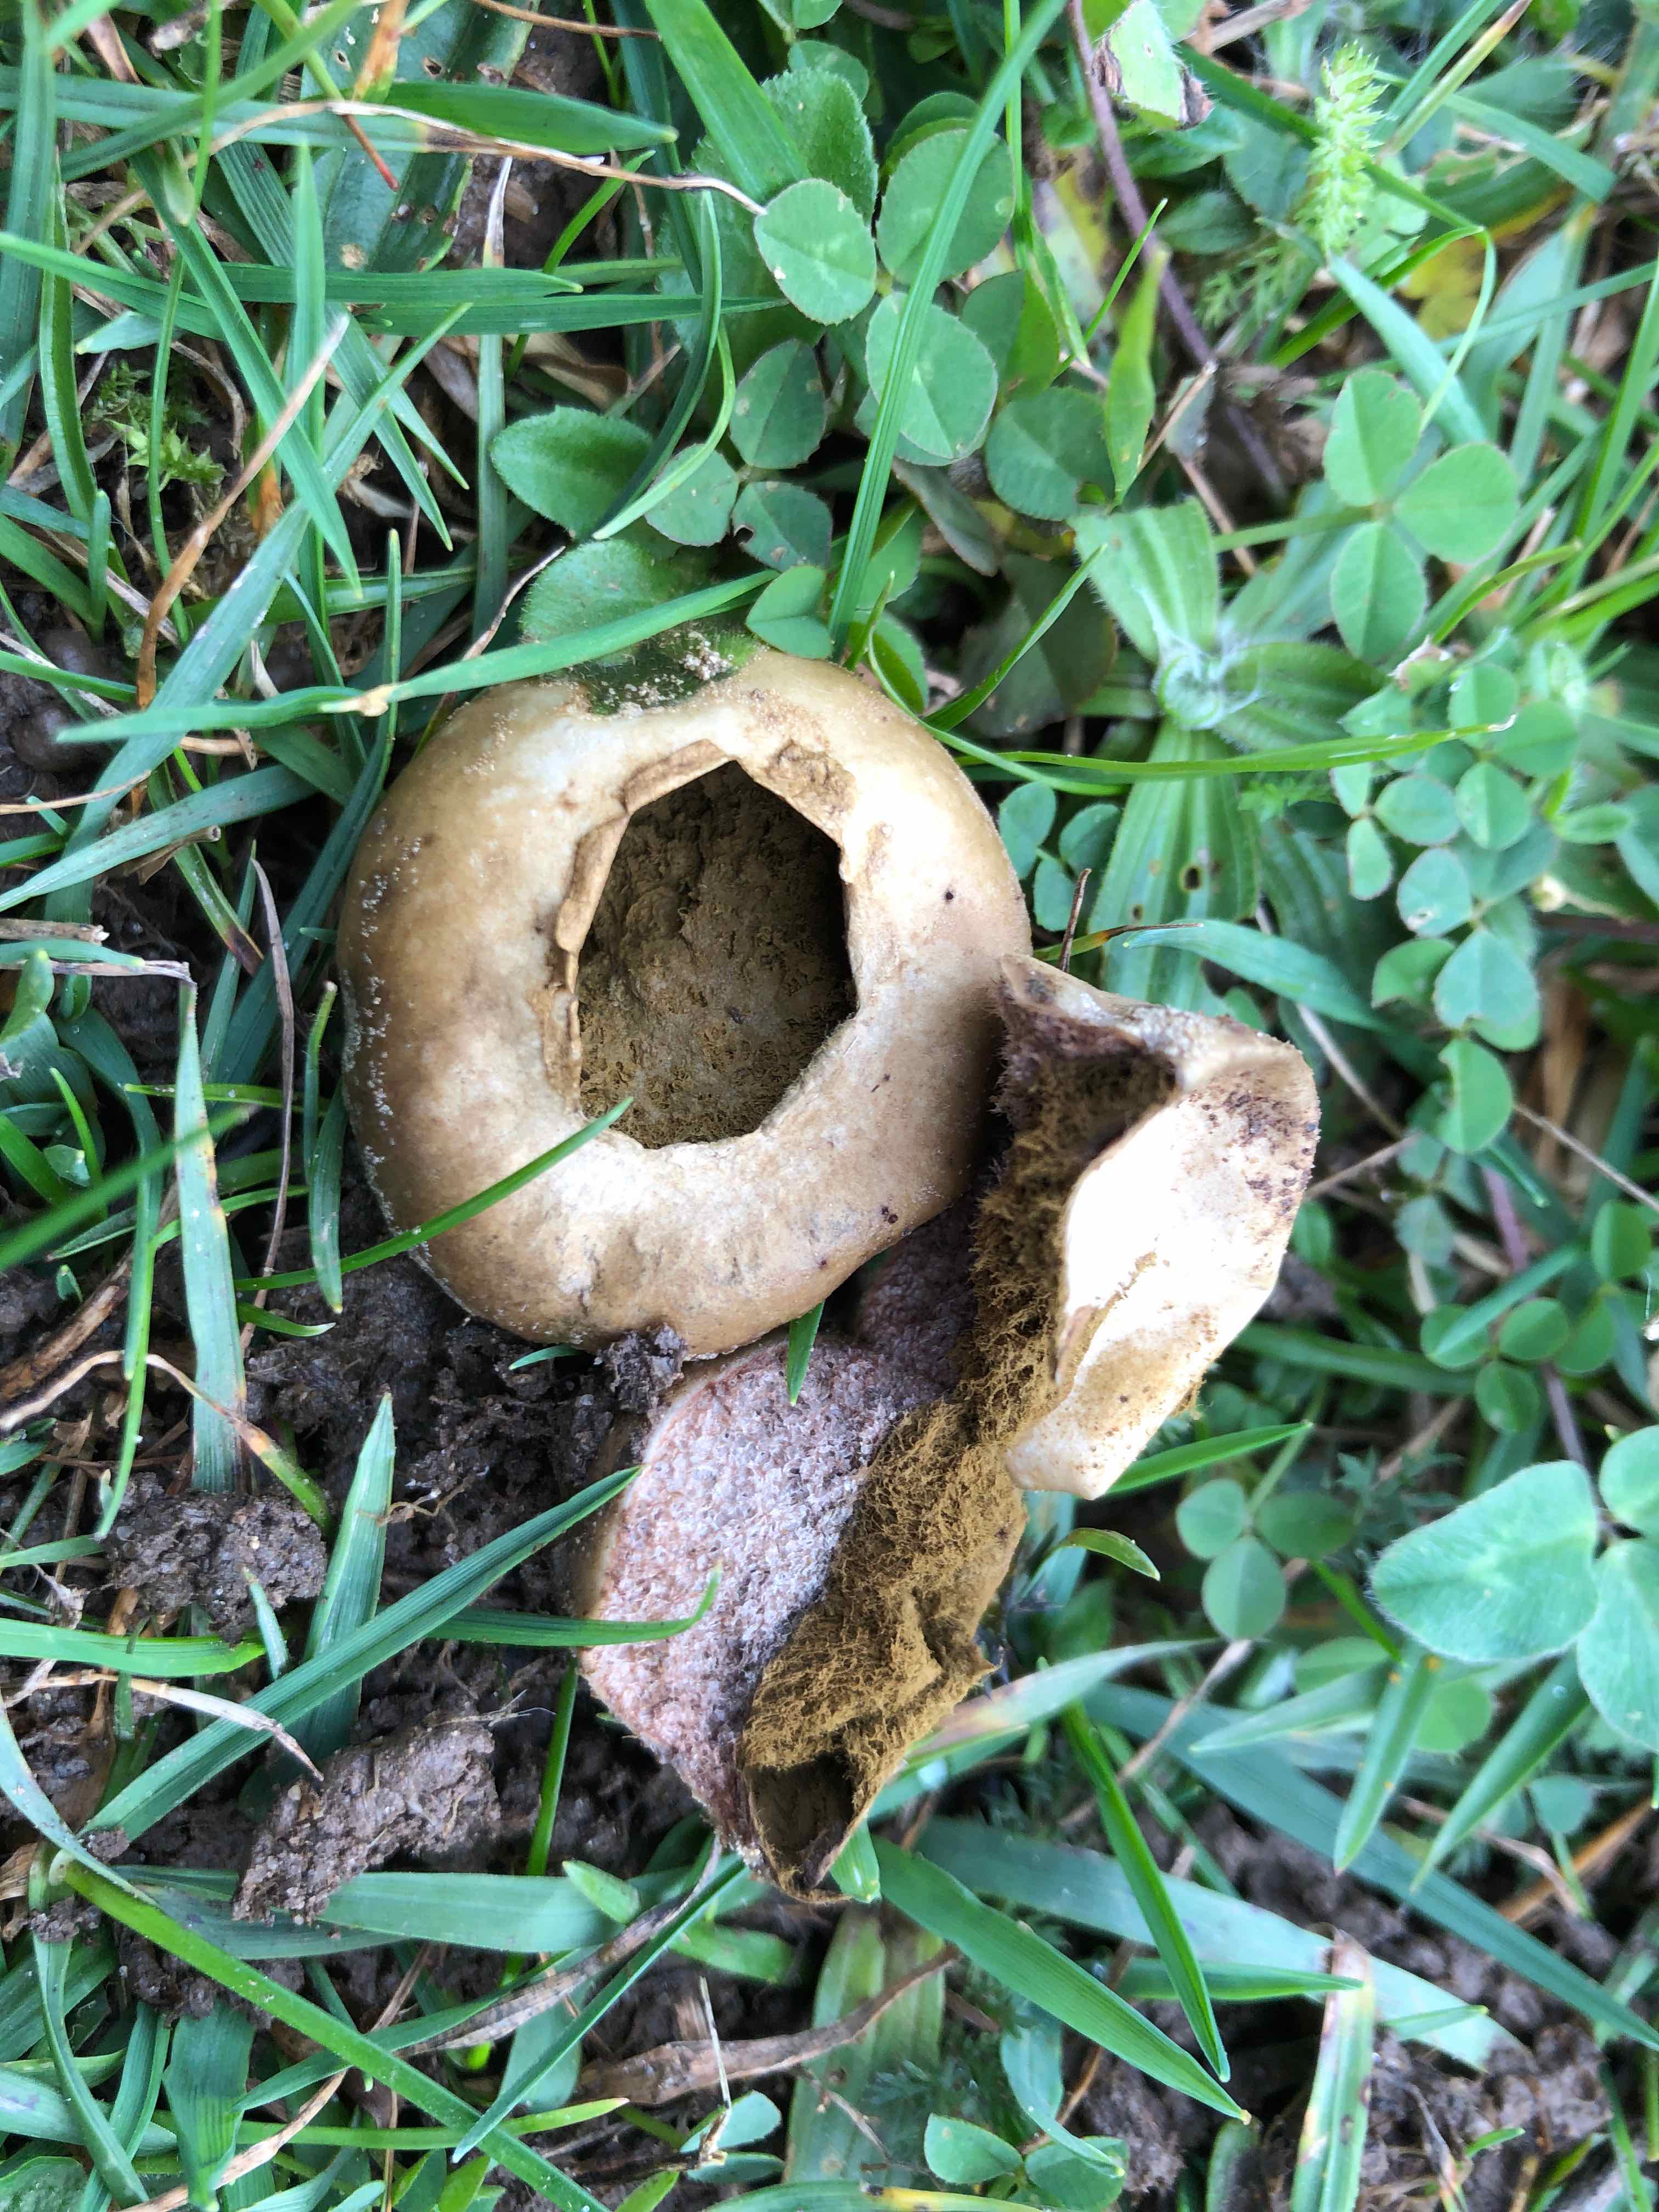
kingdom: Fungi
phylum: Basidiomycota
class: Agaricomycetes
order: Agaricales
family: Lycoperdaceae
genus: Lycoperdon
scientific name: Lycoperdon pratense
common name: flad støvbold
